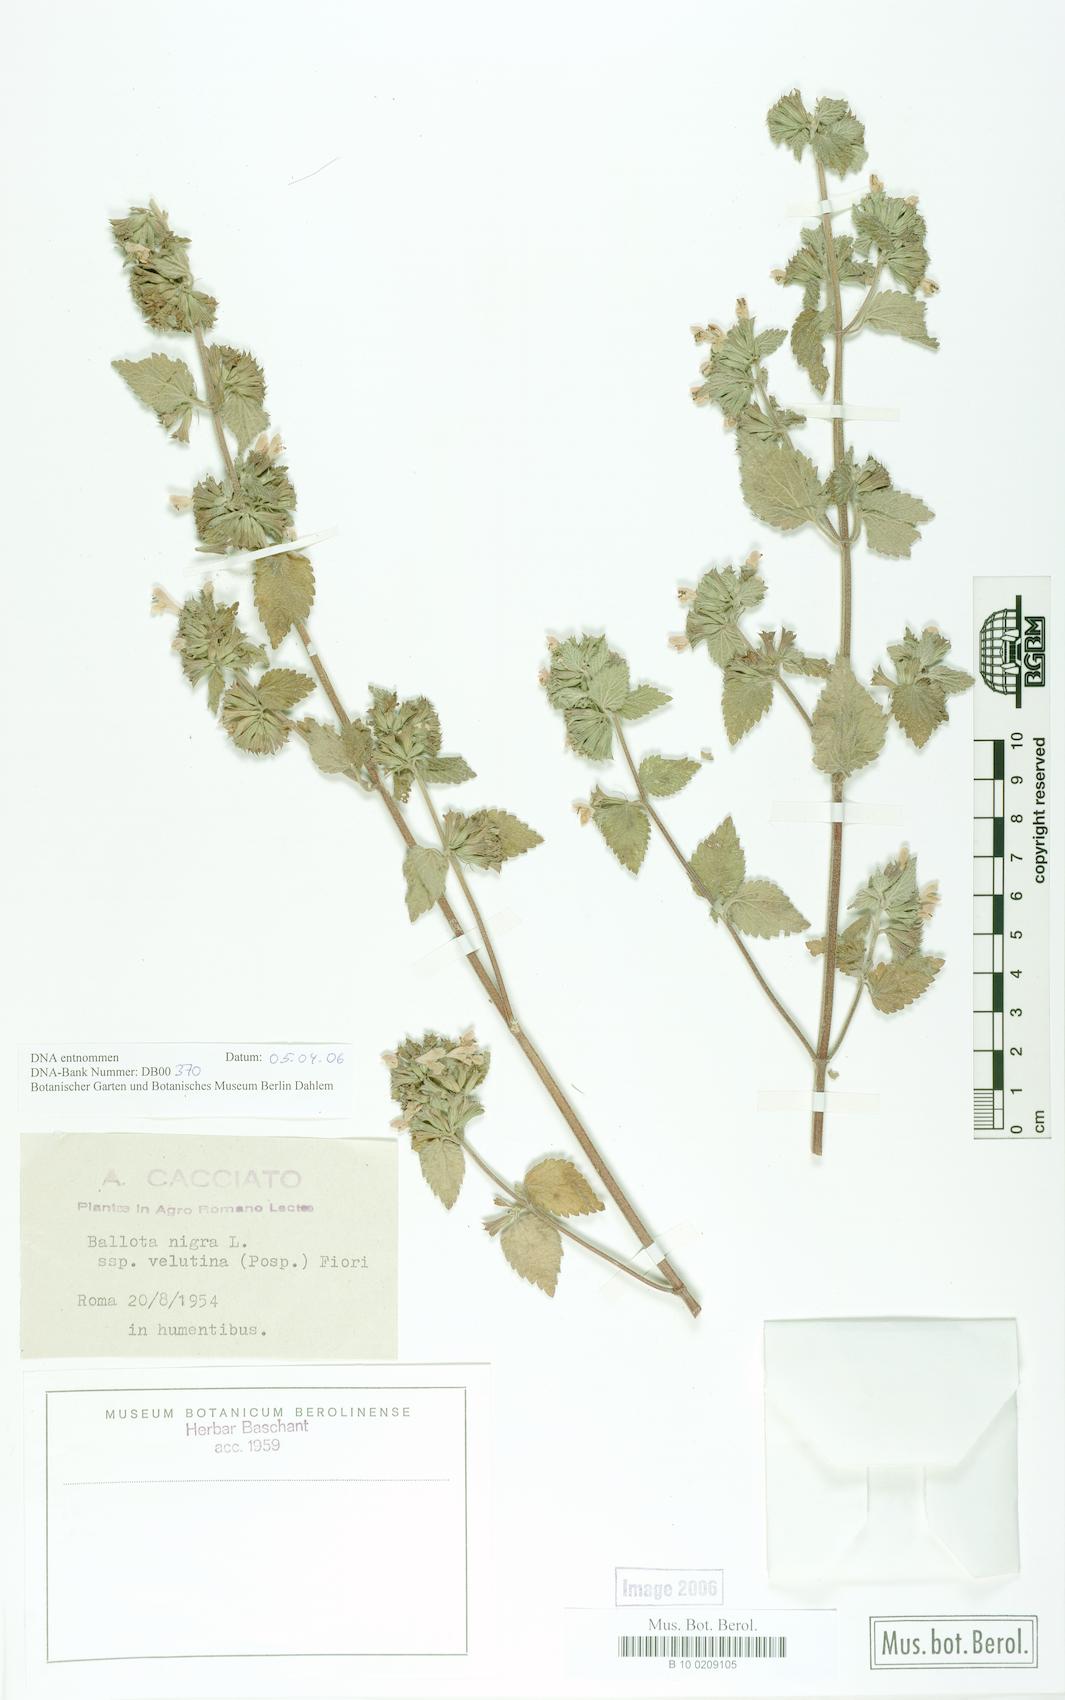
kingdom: Plantae
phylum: Tracheophyta
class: Magnoliopsida
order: Lamiales
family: Lamiaceae
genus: Ballota
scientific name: Ballota nigra
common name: Black horehound
